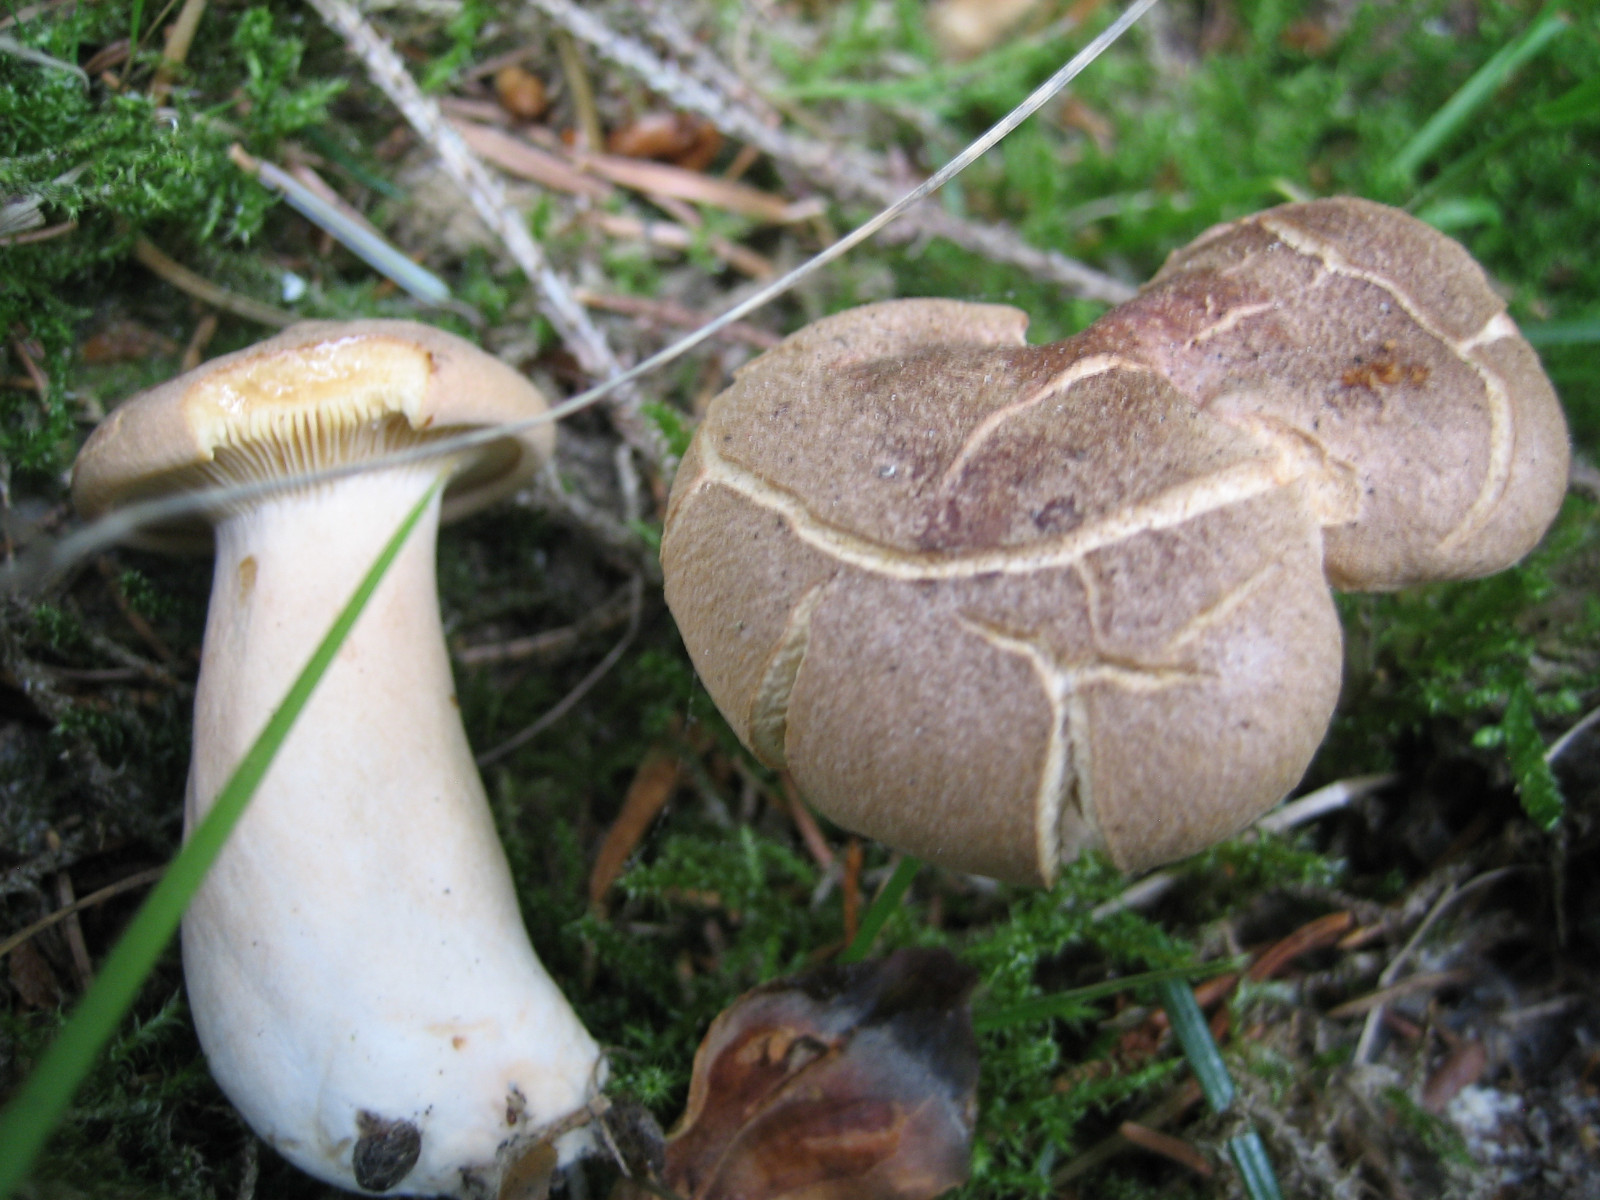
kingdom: Fungi
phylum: Basidiomycota
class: Agaricomycetes
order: Russulales
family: Russulaceae
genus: Lactarius
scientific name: Lactarius helvus
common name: mose-mælkehat
